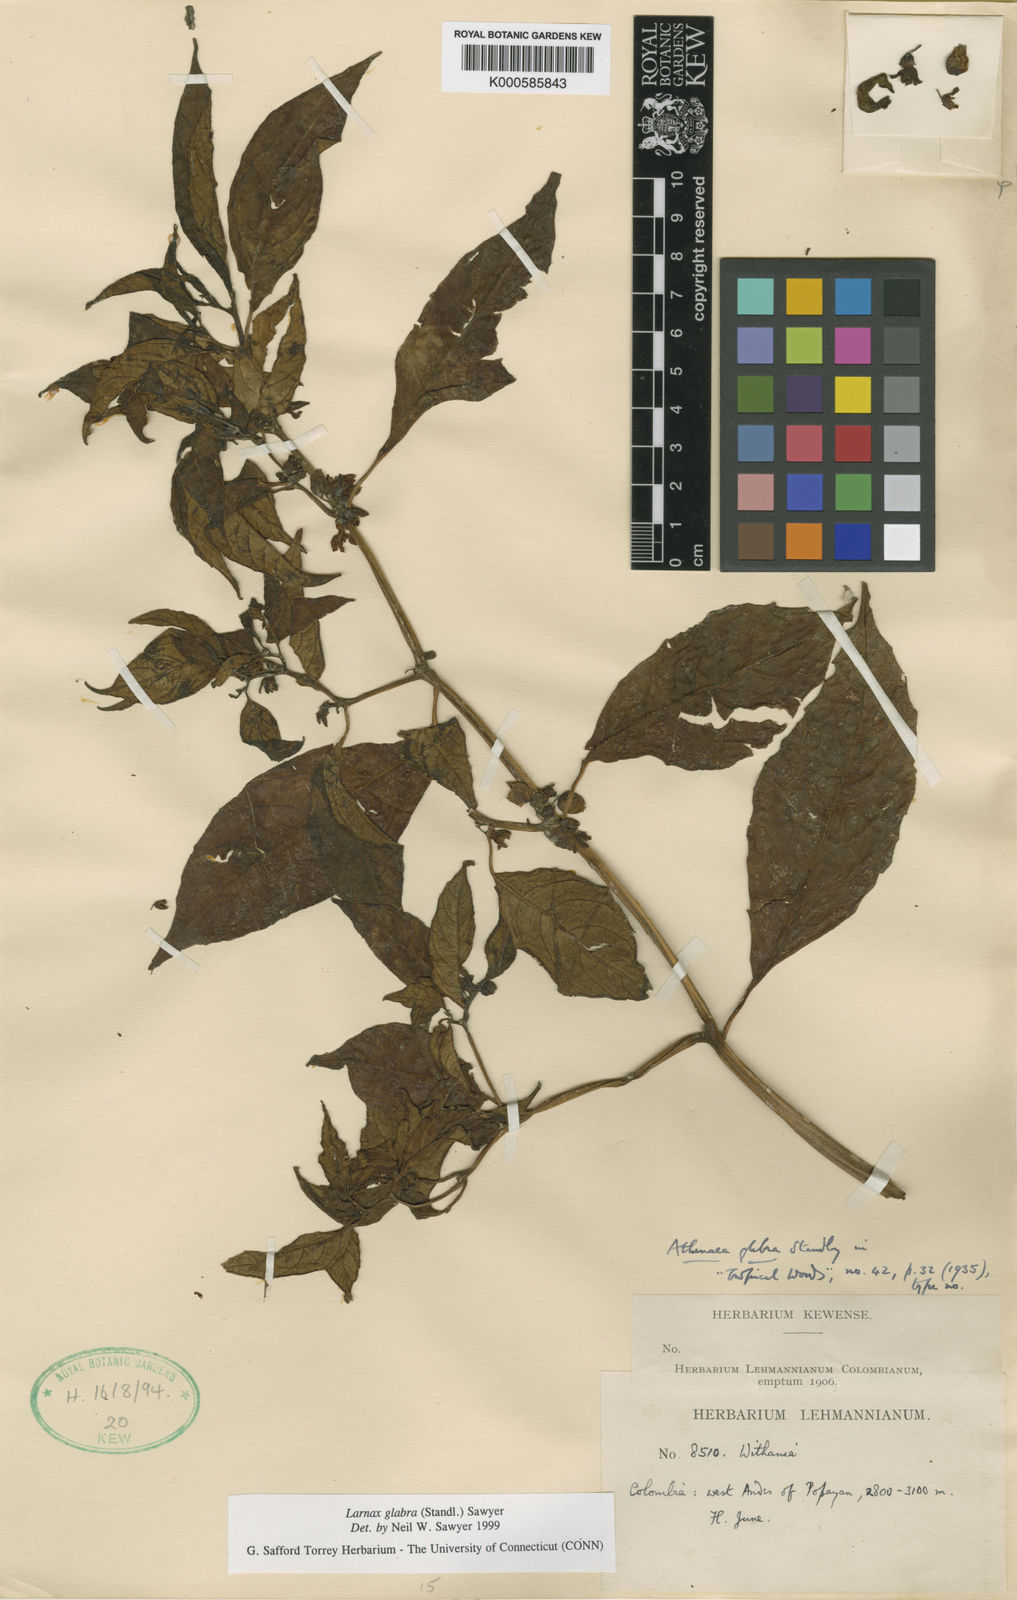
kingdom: Plantae
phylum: Tracheophyta
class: Magnoliopsida
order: Solanales
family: Solanaceae
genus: Deprea
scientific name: Deprea glabra
